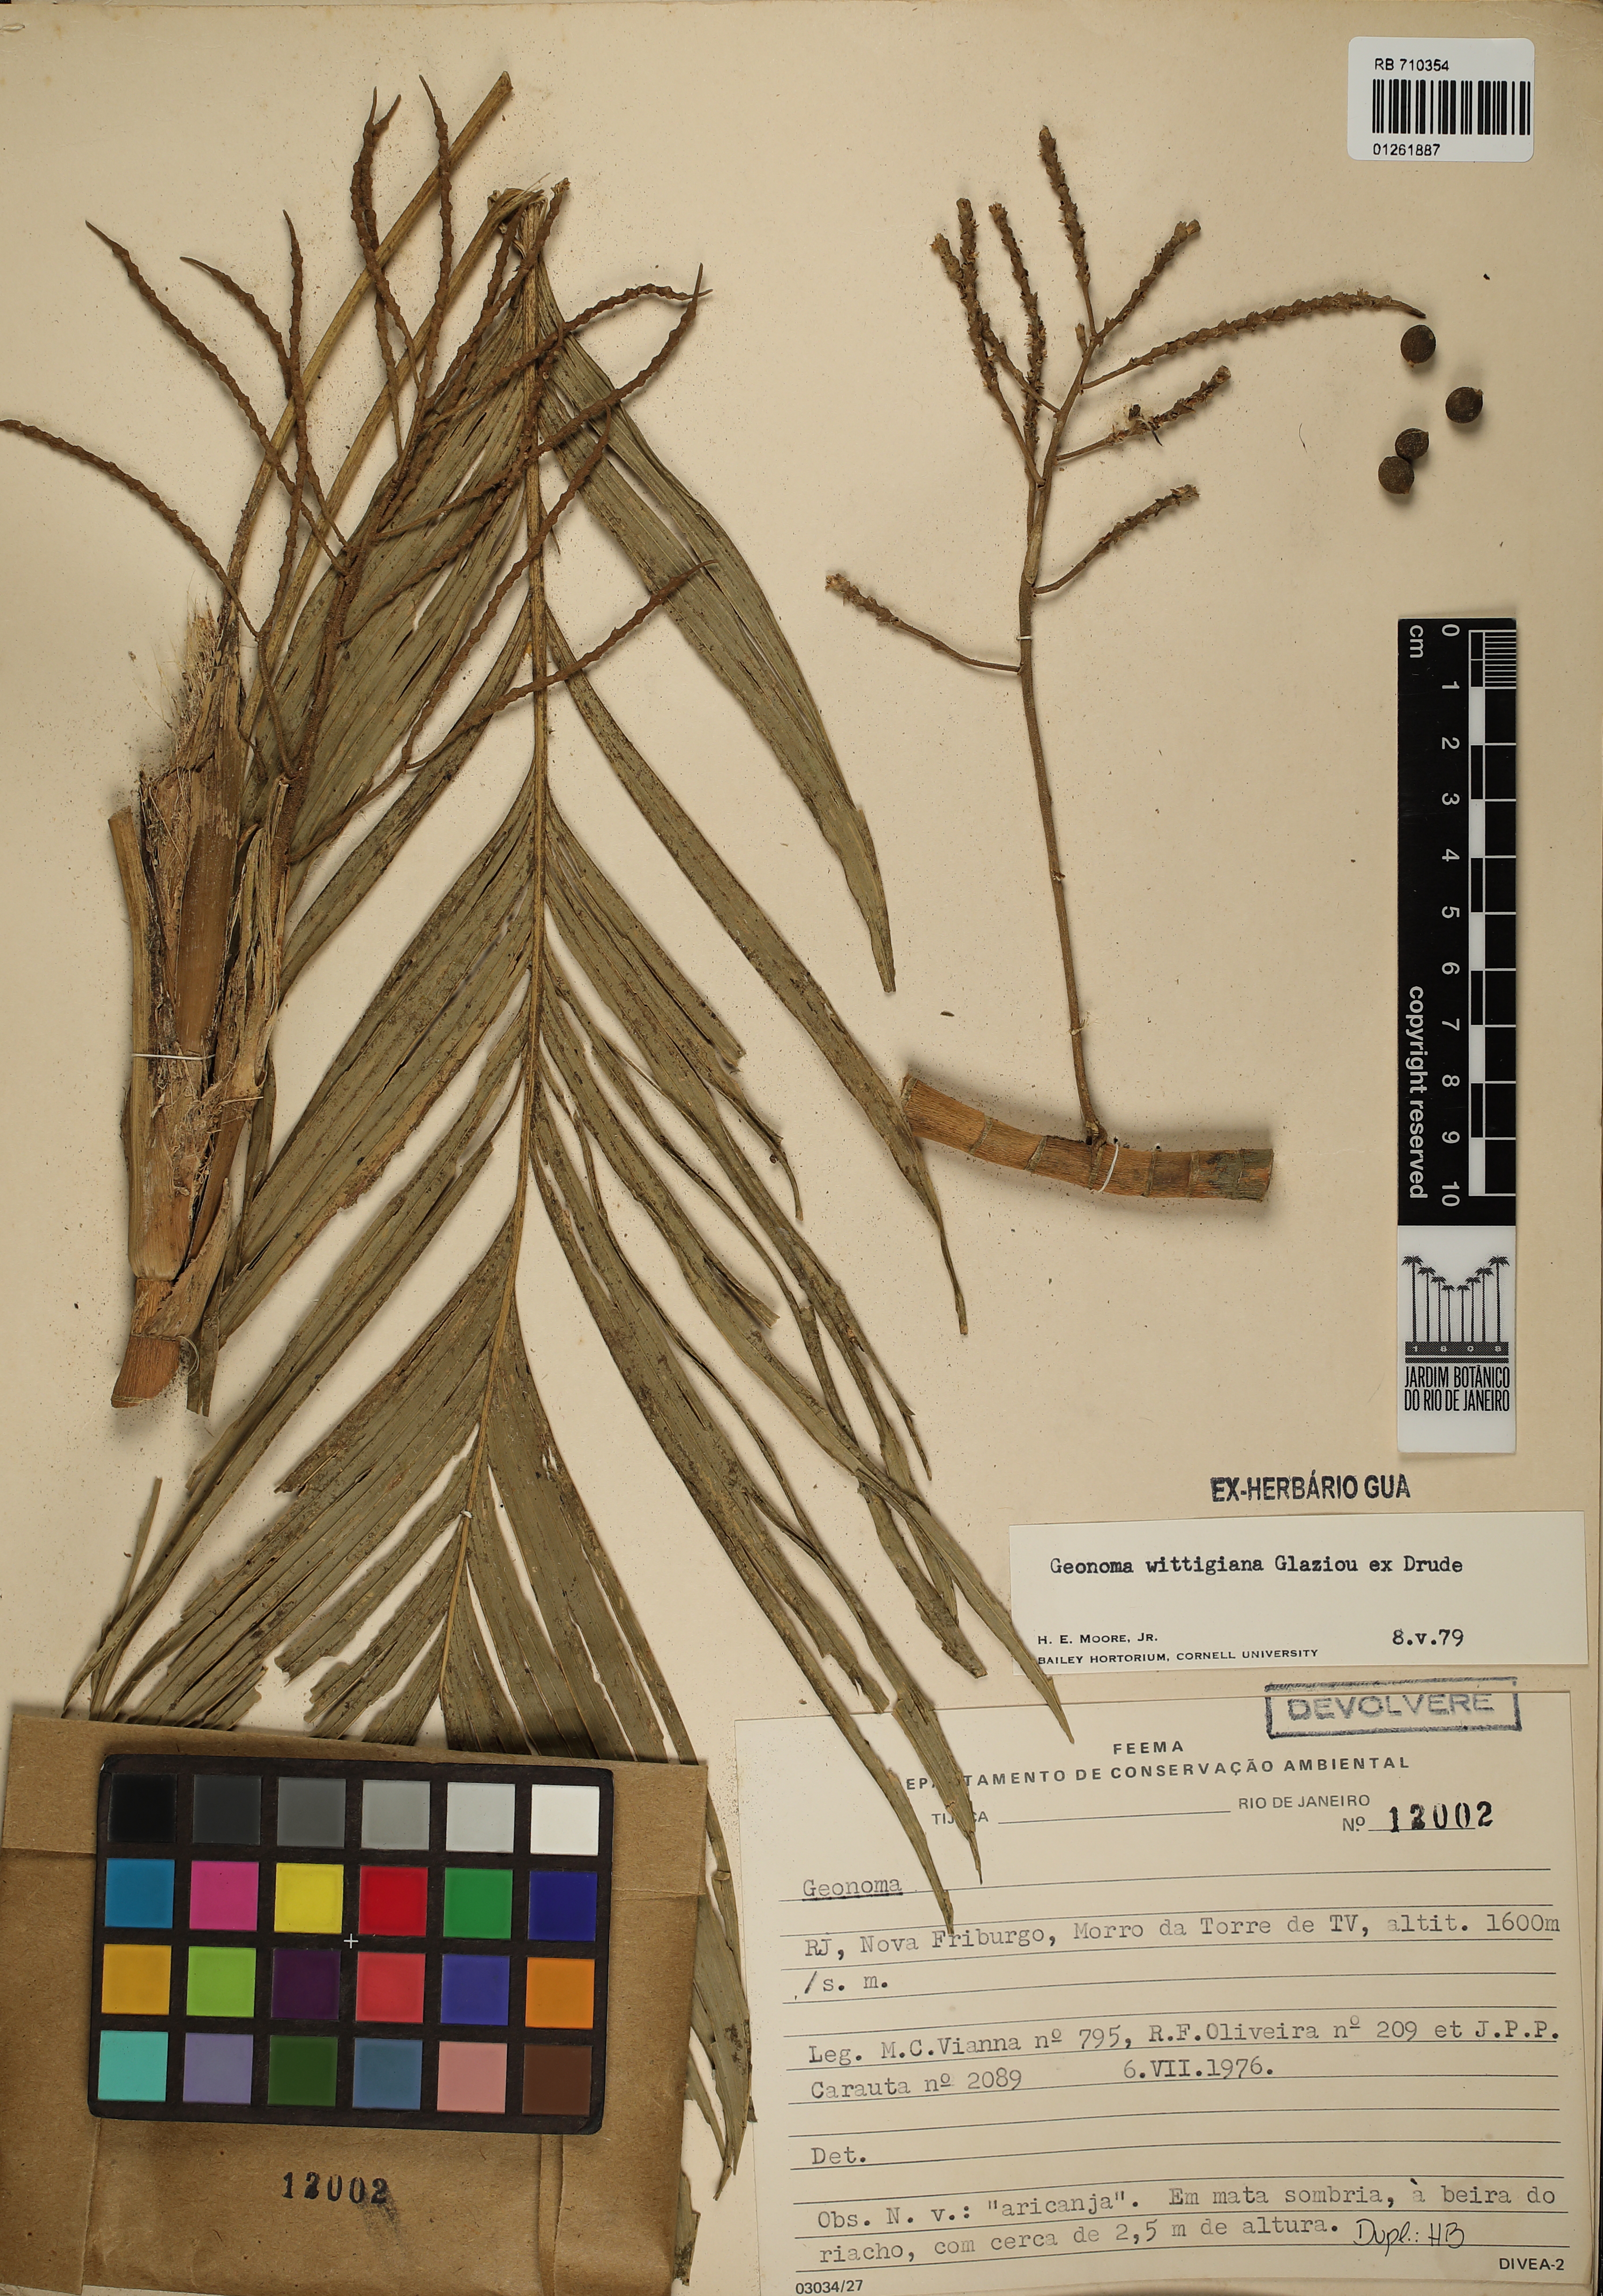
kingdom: Plantae
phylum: Tracheophyta
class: Liliopsida
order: Arecales
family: Arecaceae
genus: Geonoma
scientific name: Geonoma pohliana
